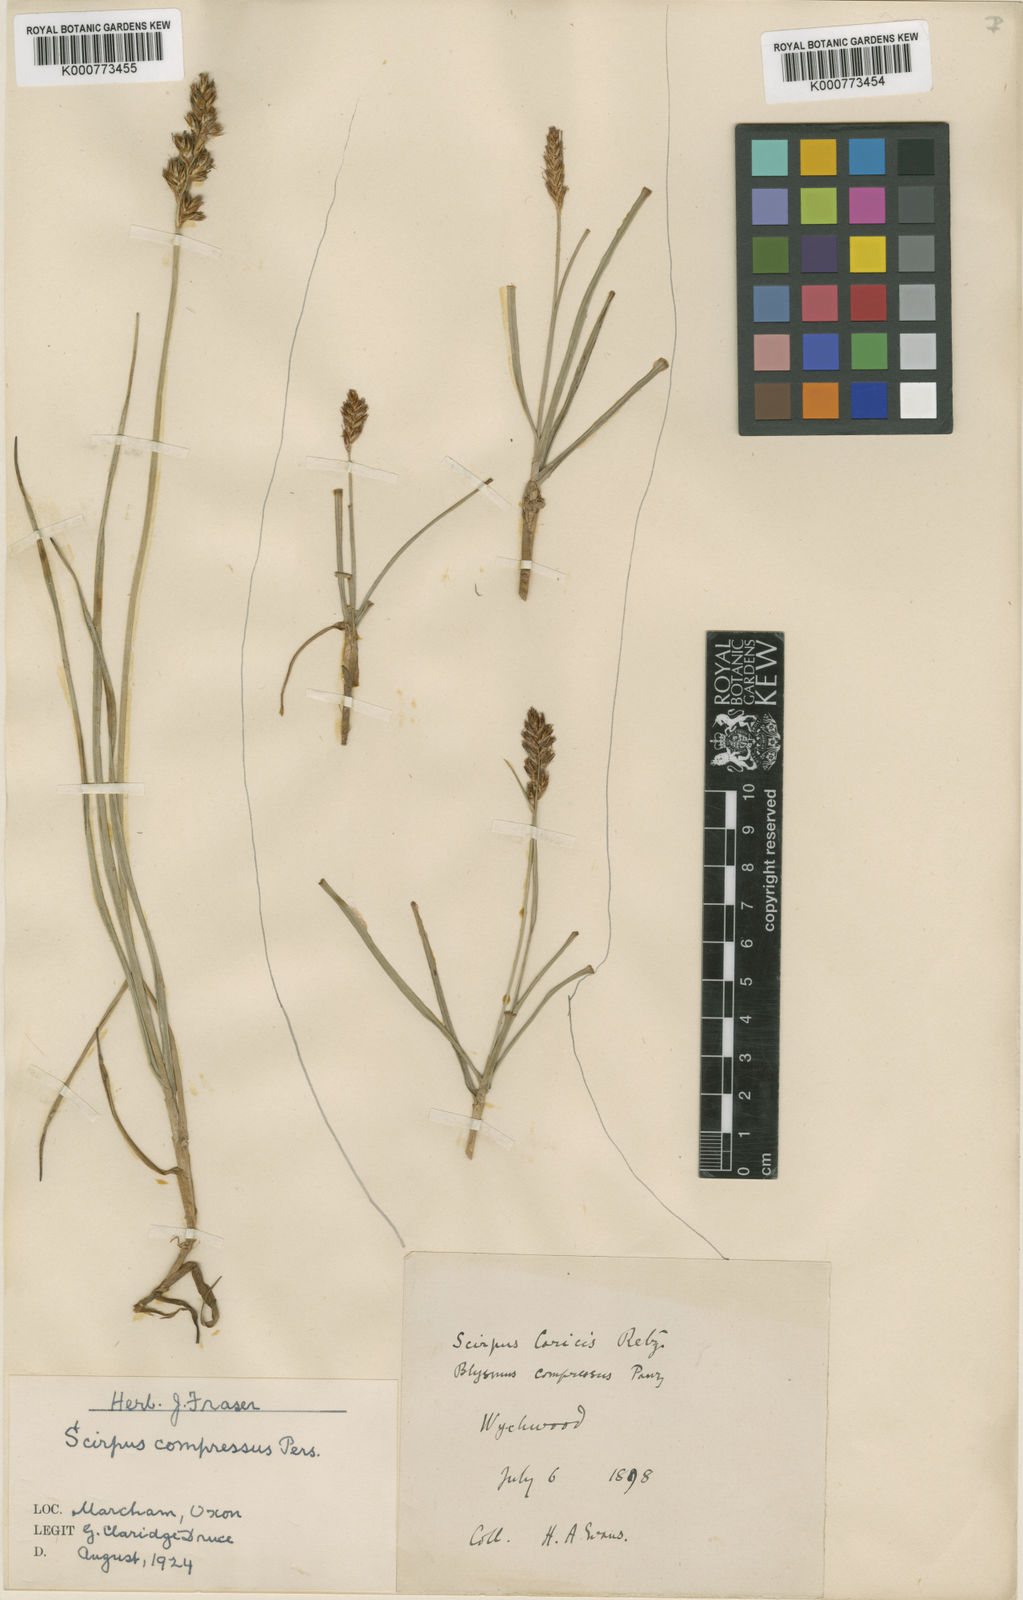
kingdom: Plantae
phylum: Tracheophyta
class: Liliopsida
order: Poales
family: Cyperaceae
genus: Blysmus
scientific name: Blysmus compressus
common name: Flat-sedge
